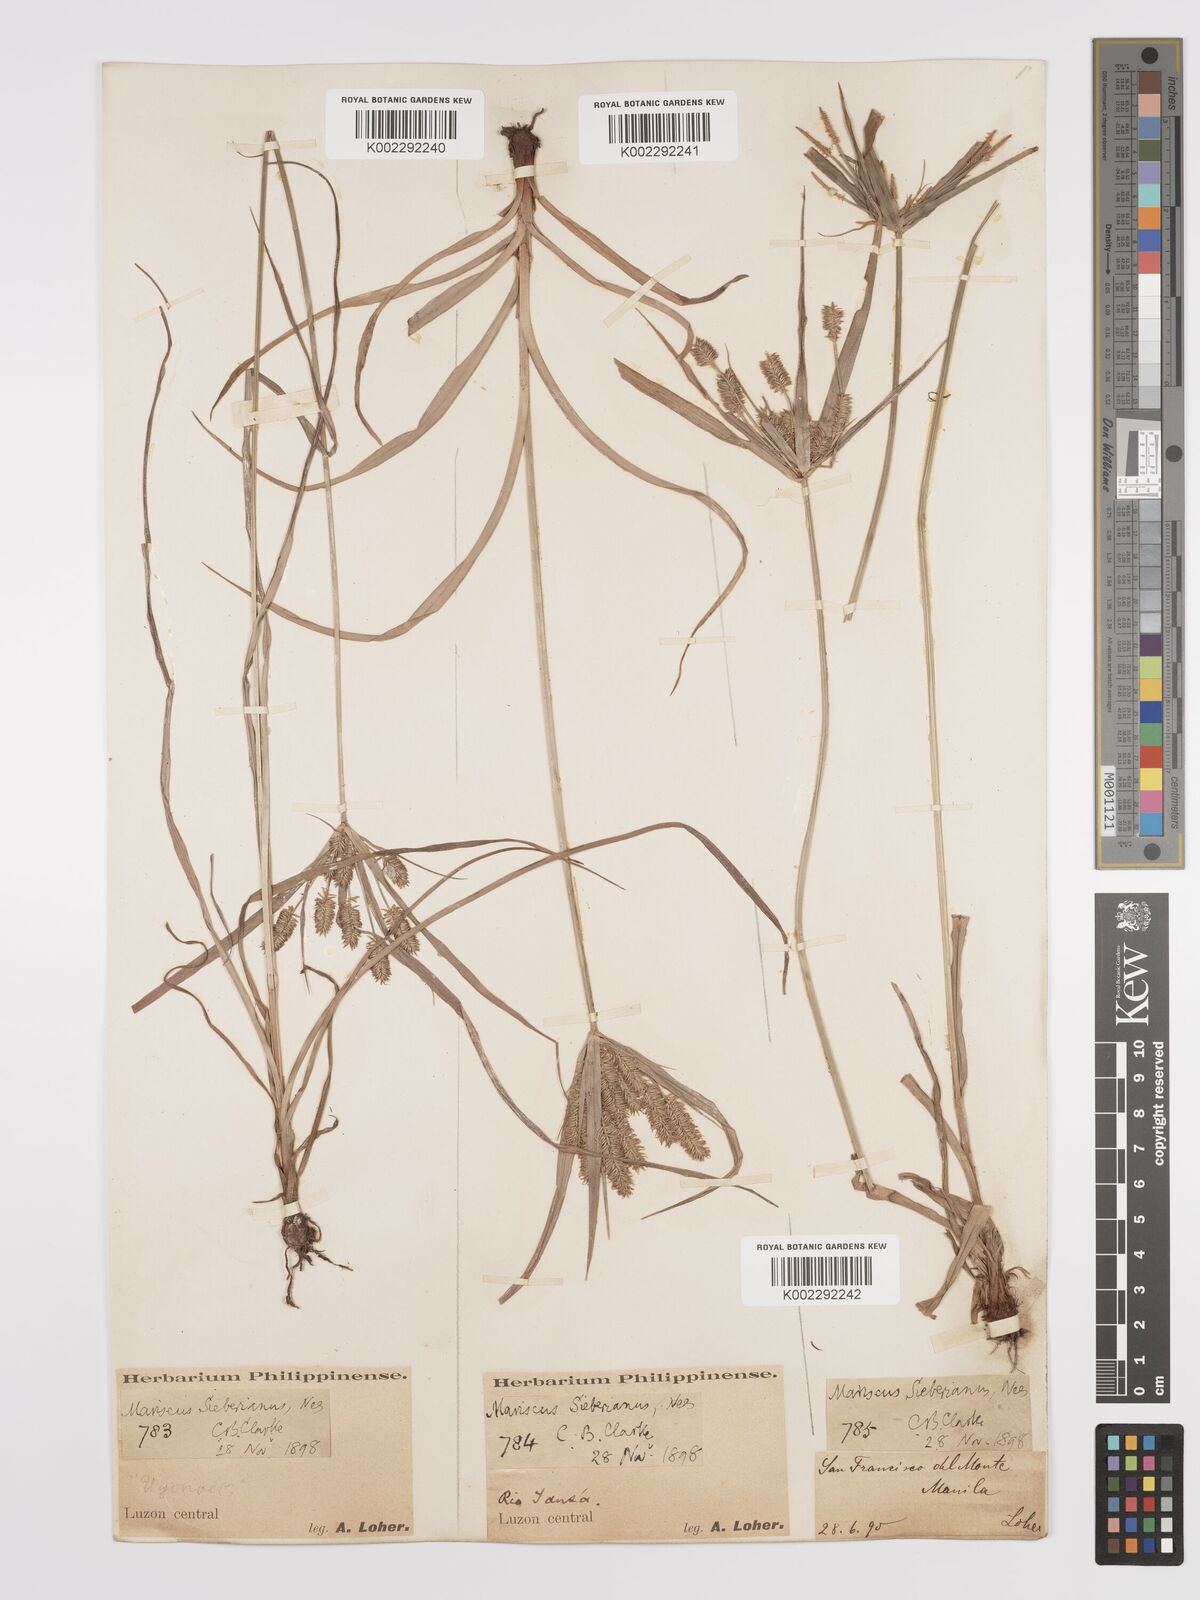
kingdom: Plantae
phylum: Tracheophyta
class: Liliopsida
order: Poales
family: Cyperaceae
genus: Cyperus
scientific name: Cyperus cyperoides
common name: Pacific island flat sedge
